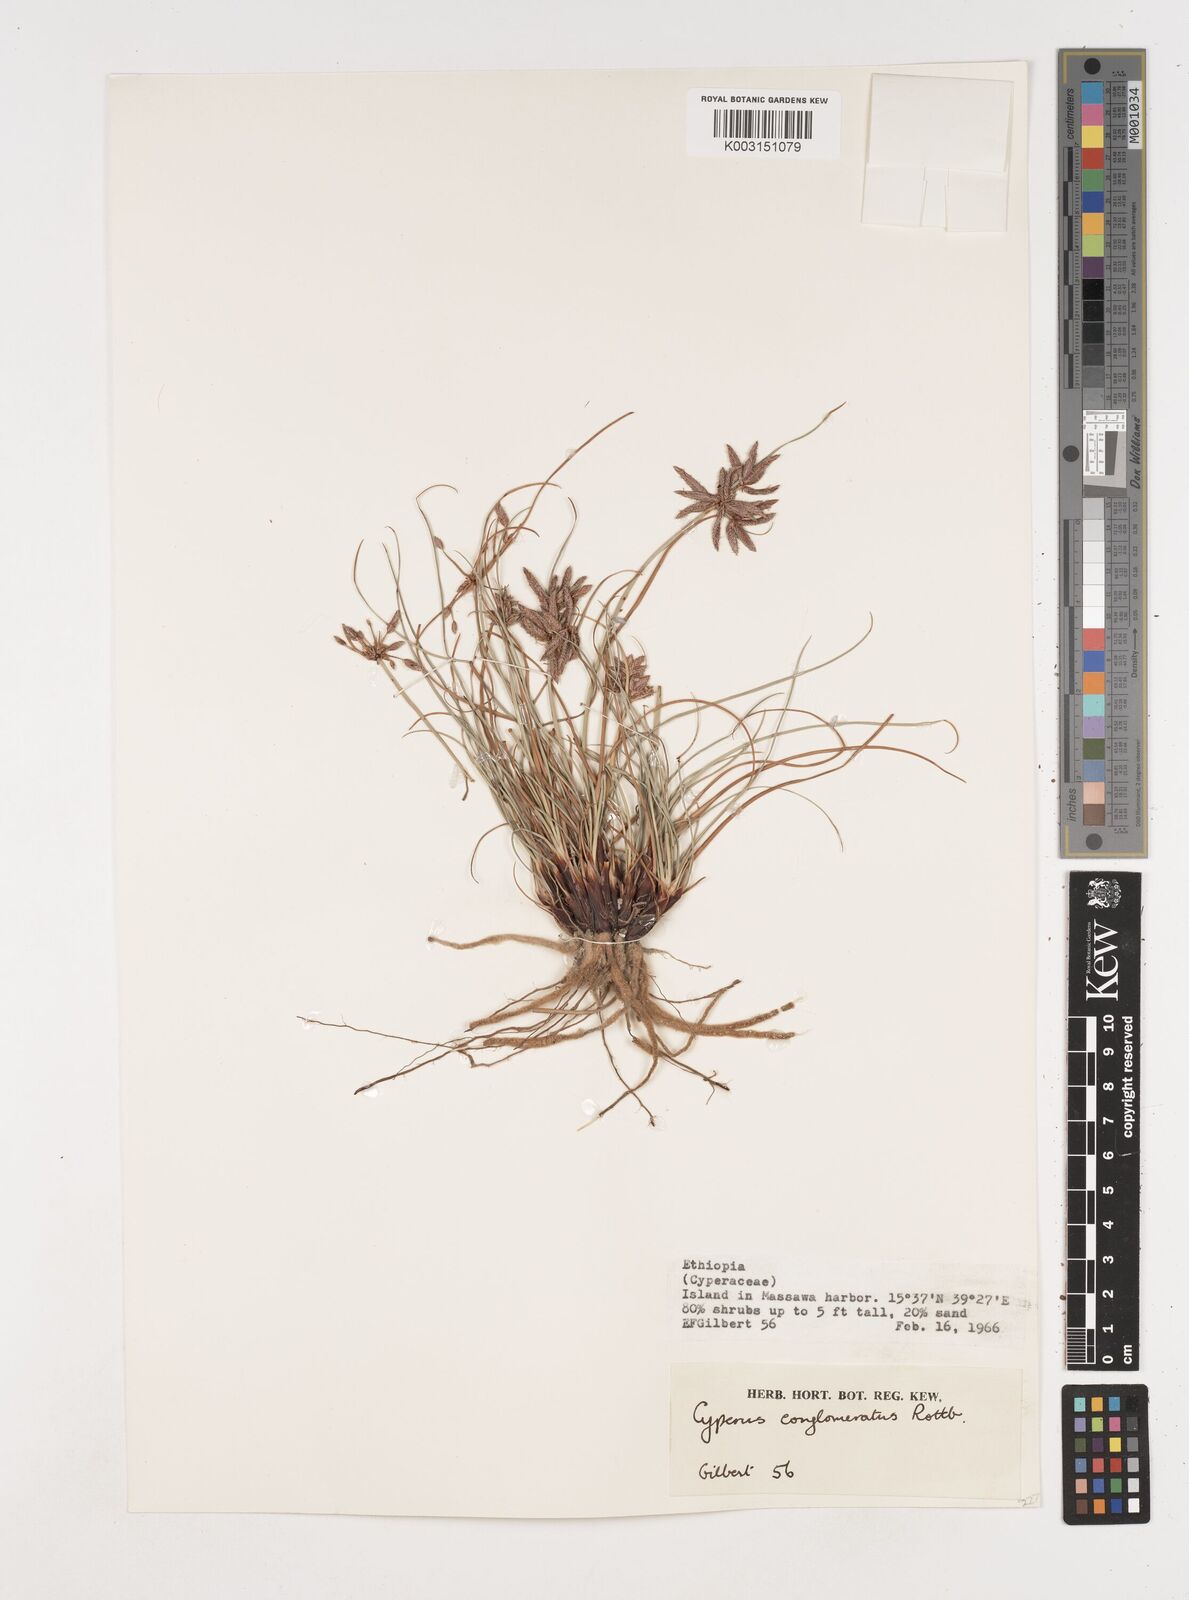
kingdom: Plantae
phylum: Tracheophyta
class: Liliopsida
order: Poales
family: Cyperaceae
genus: Cyperus
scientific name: Cyperus jeminicus
